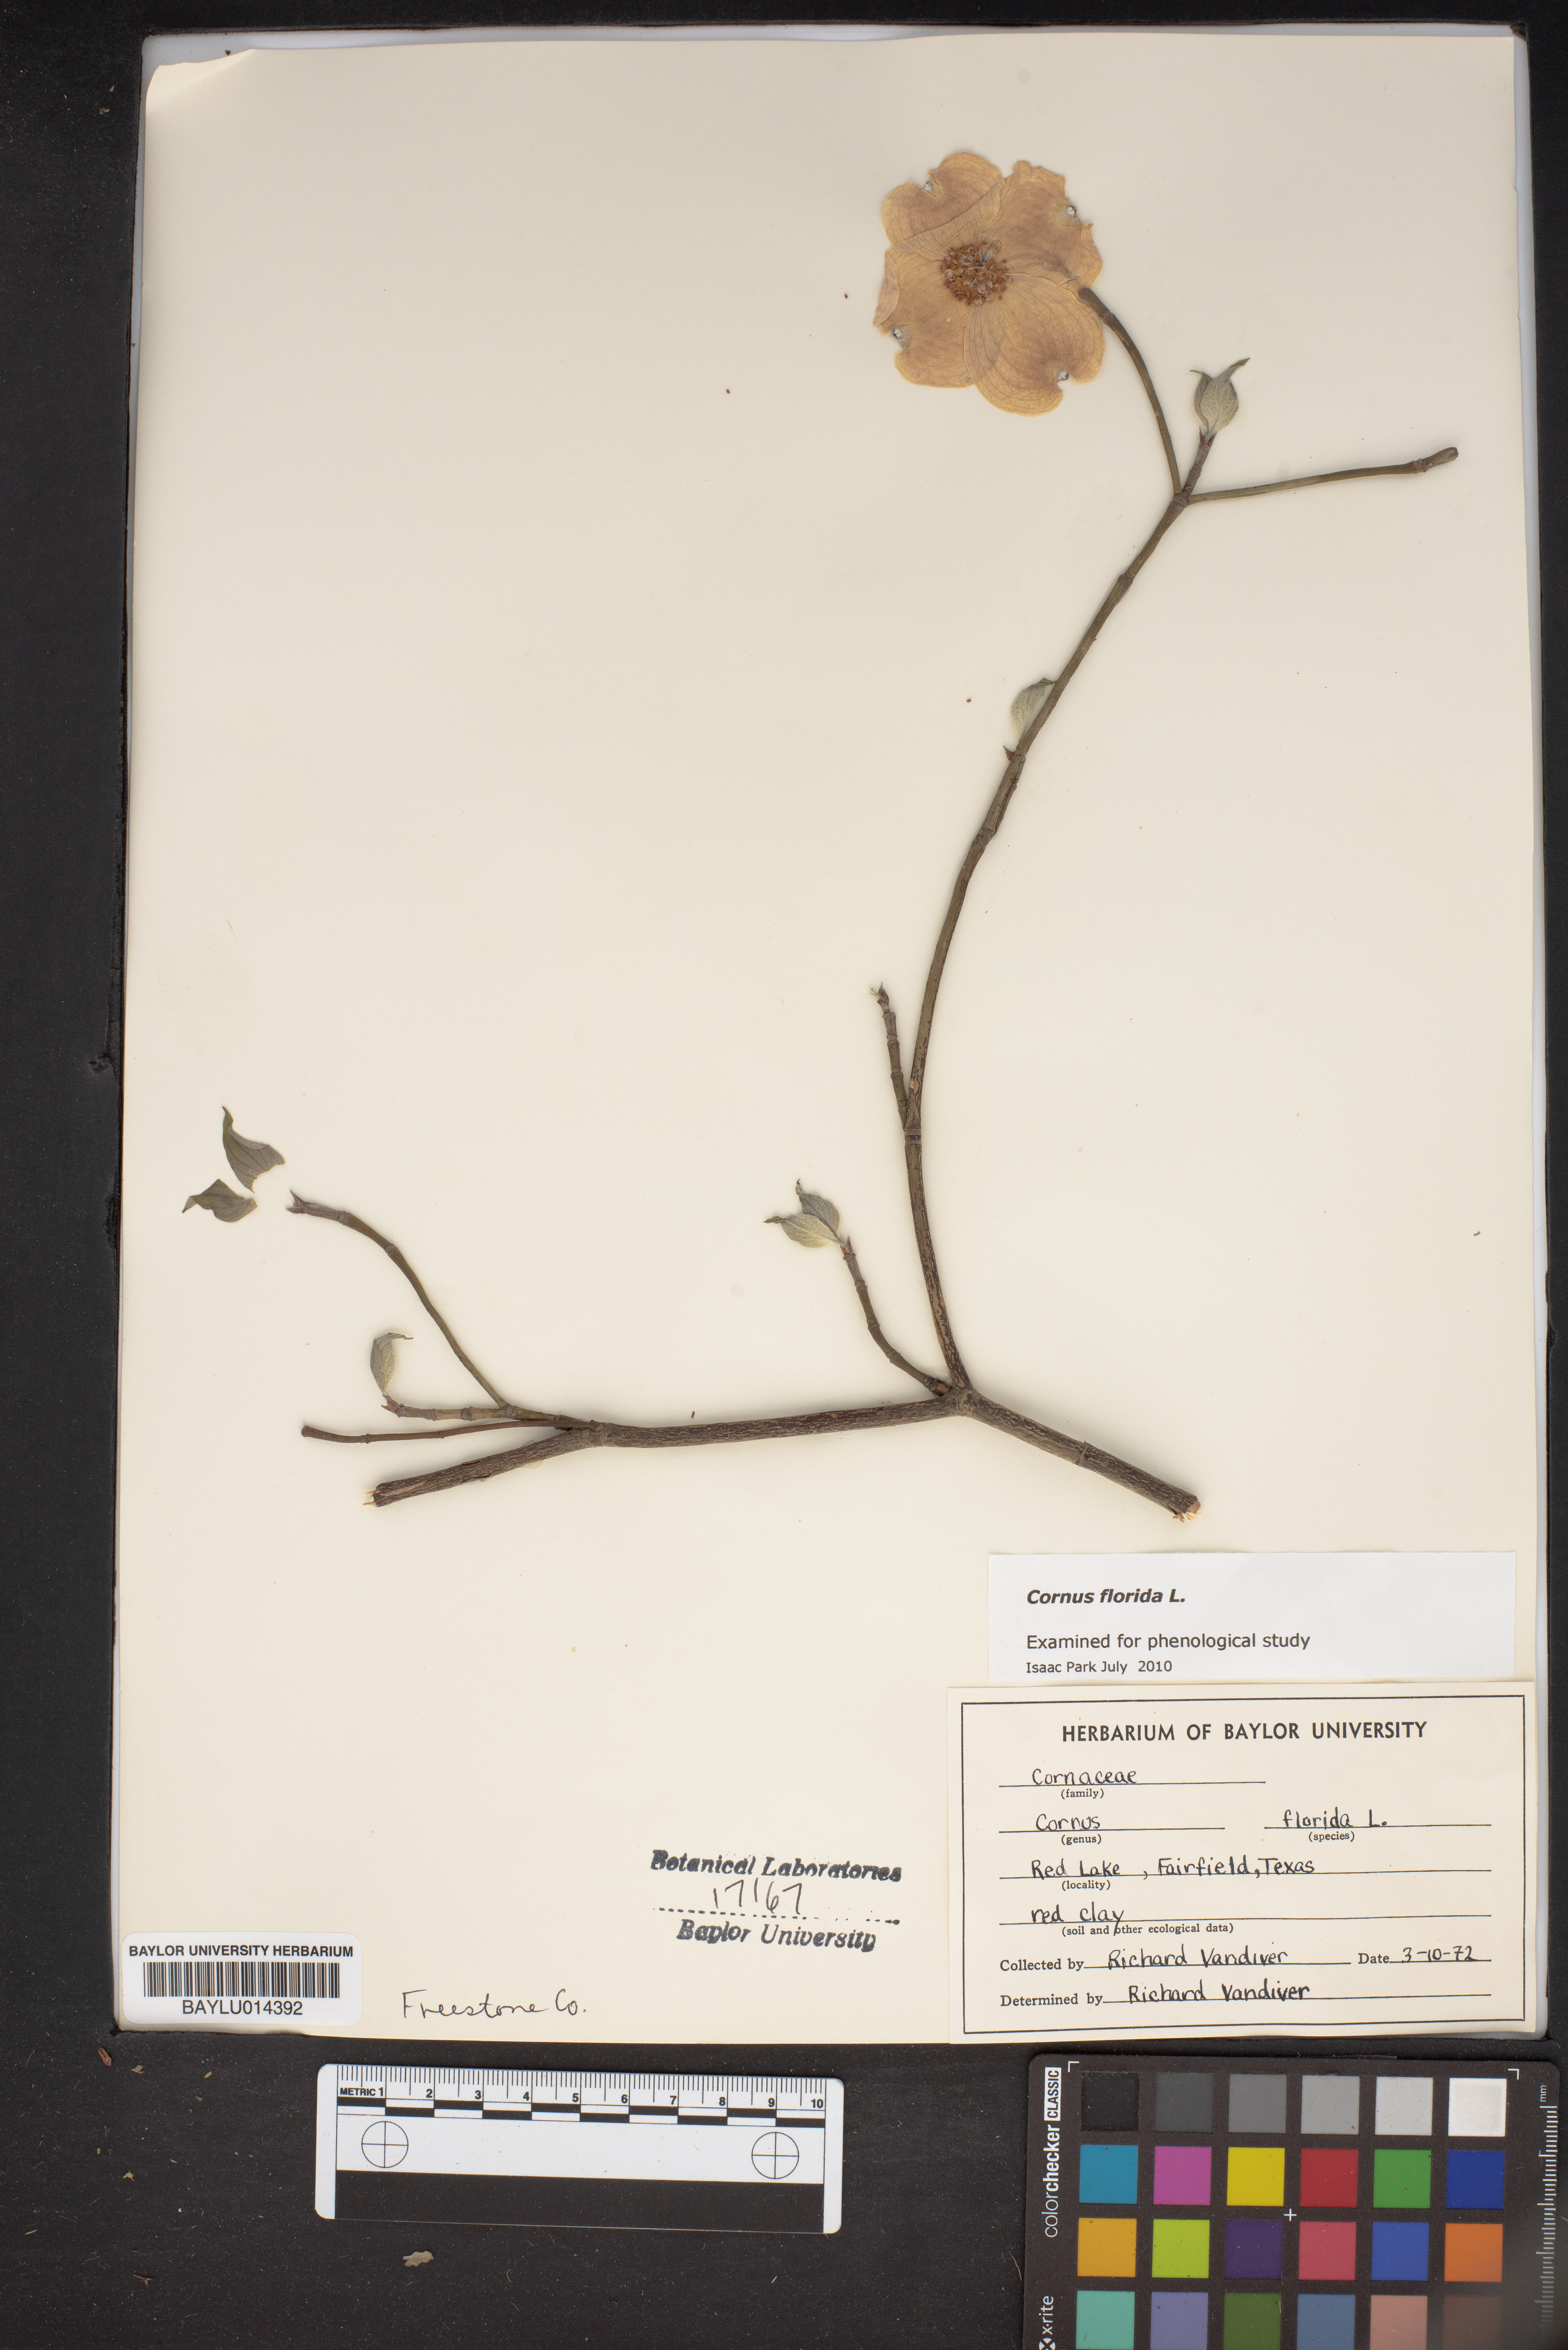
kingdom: Plantae
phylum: Tracheophyta
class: Magnoliopsida
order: Cornales
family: Cornaceae
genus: Cornus
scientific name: Cornus florida
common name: Flowering dogwood
